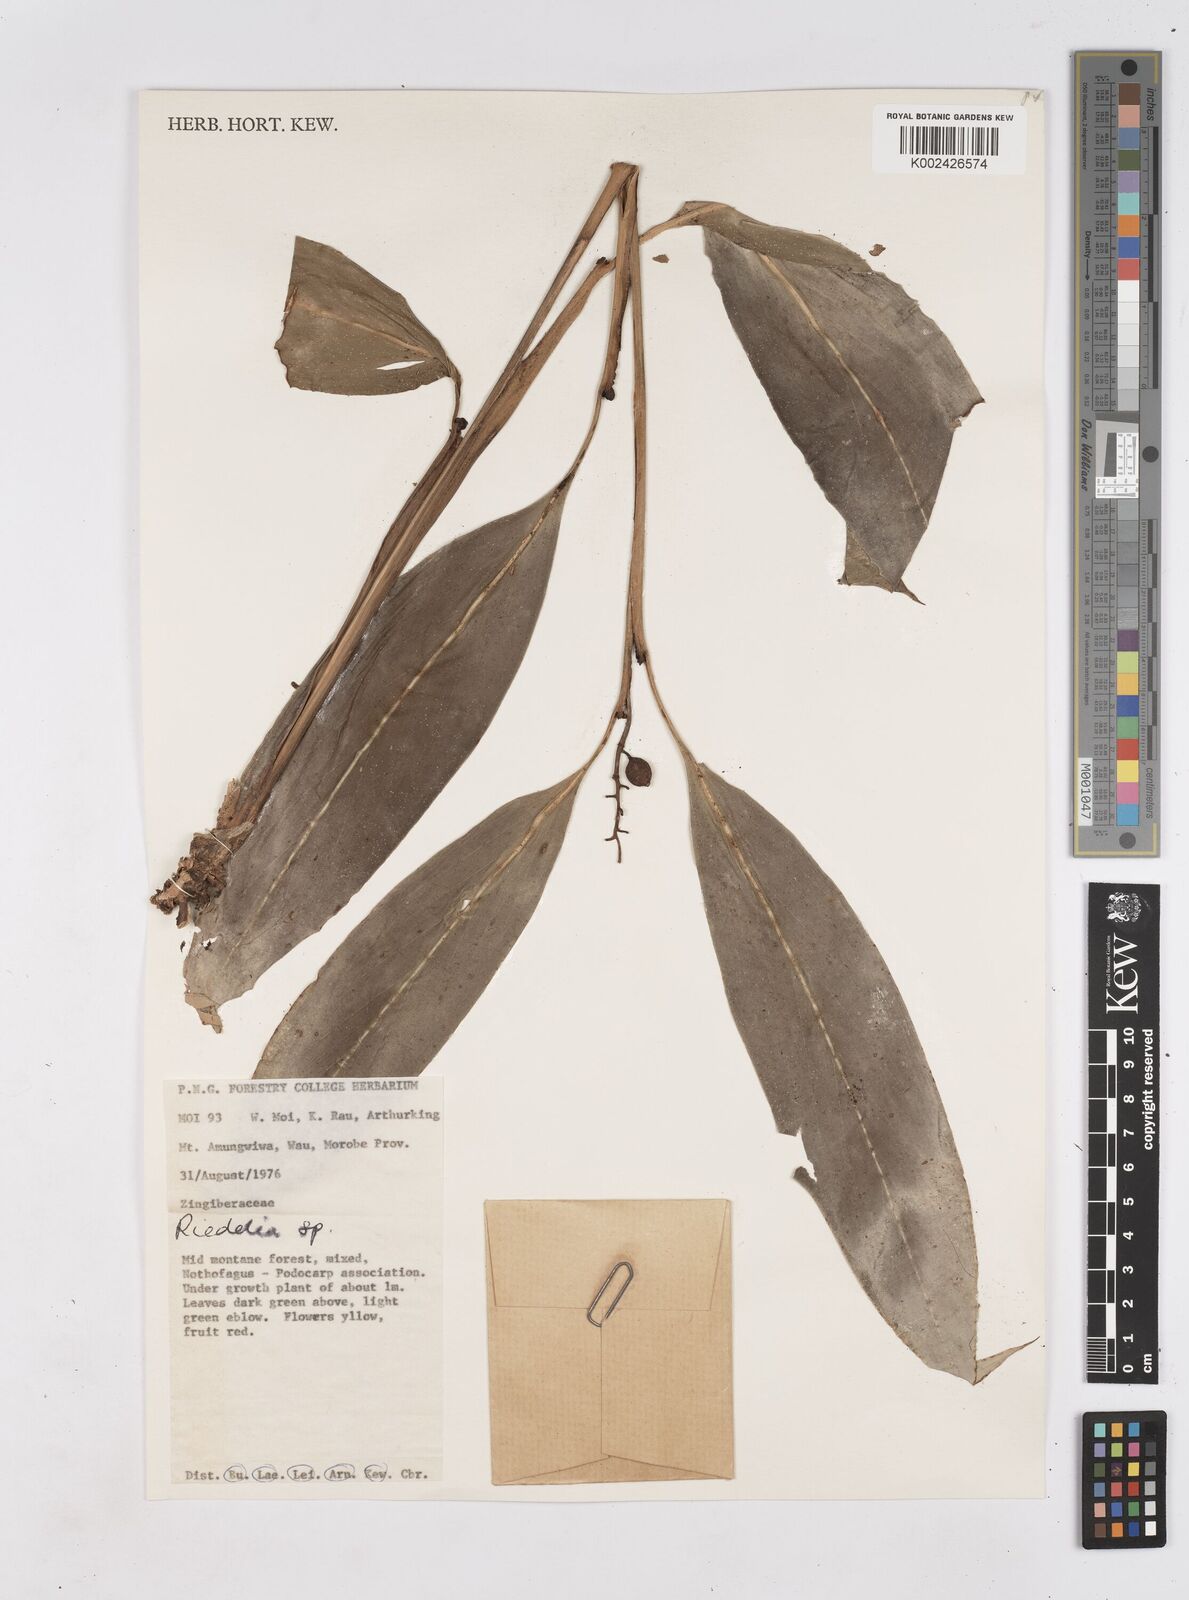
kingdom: Plantae
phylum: Tracheophyta
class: Liliopsida
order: Zingiberales
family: Zingiberaceae
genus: Riedelia
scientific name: Riedelia
